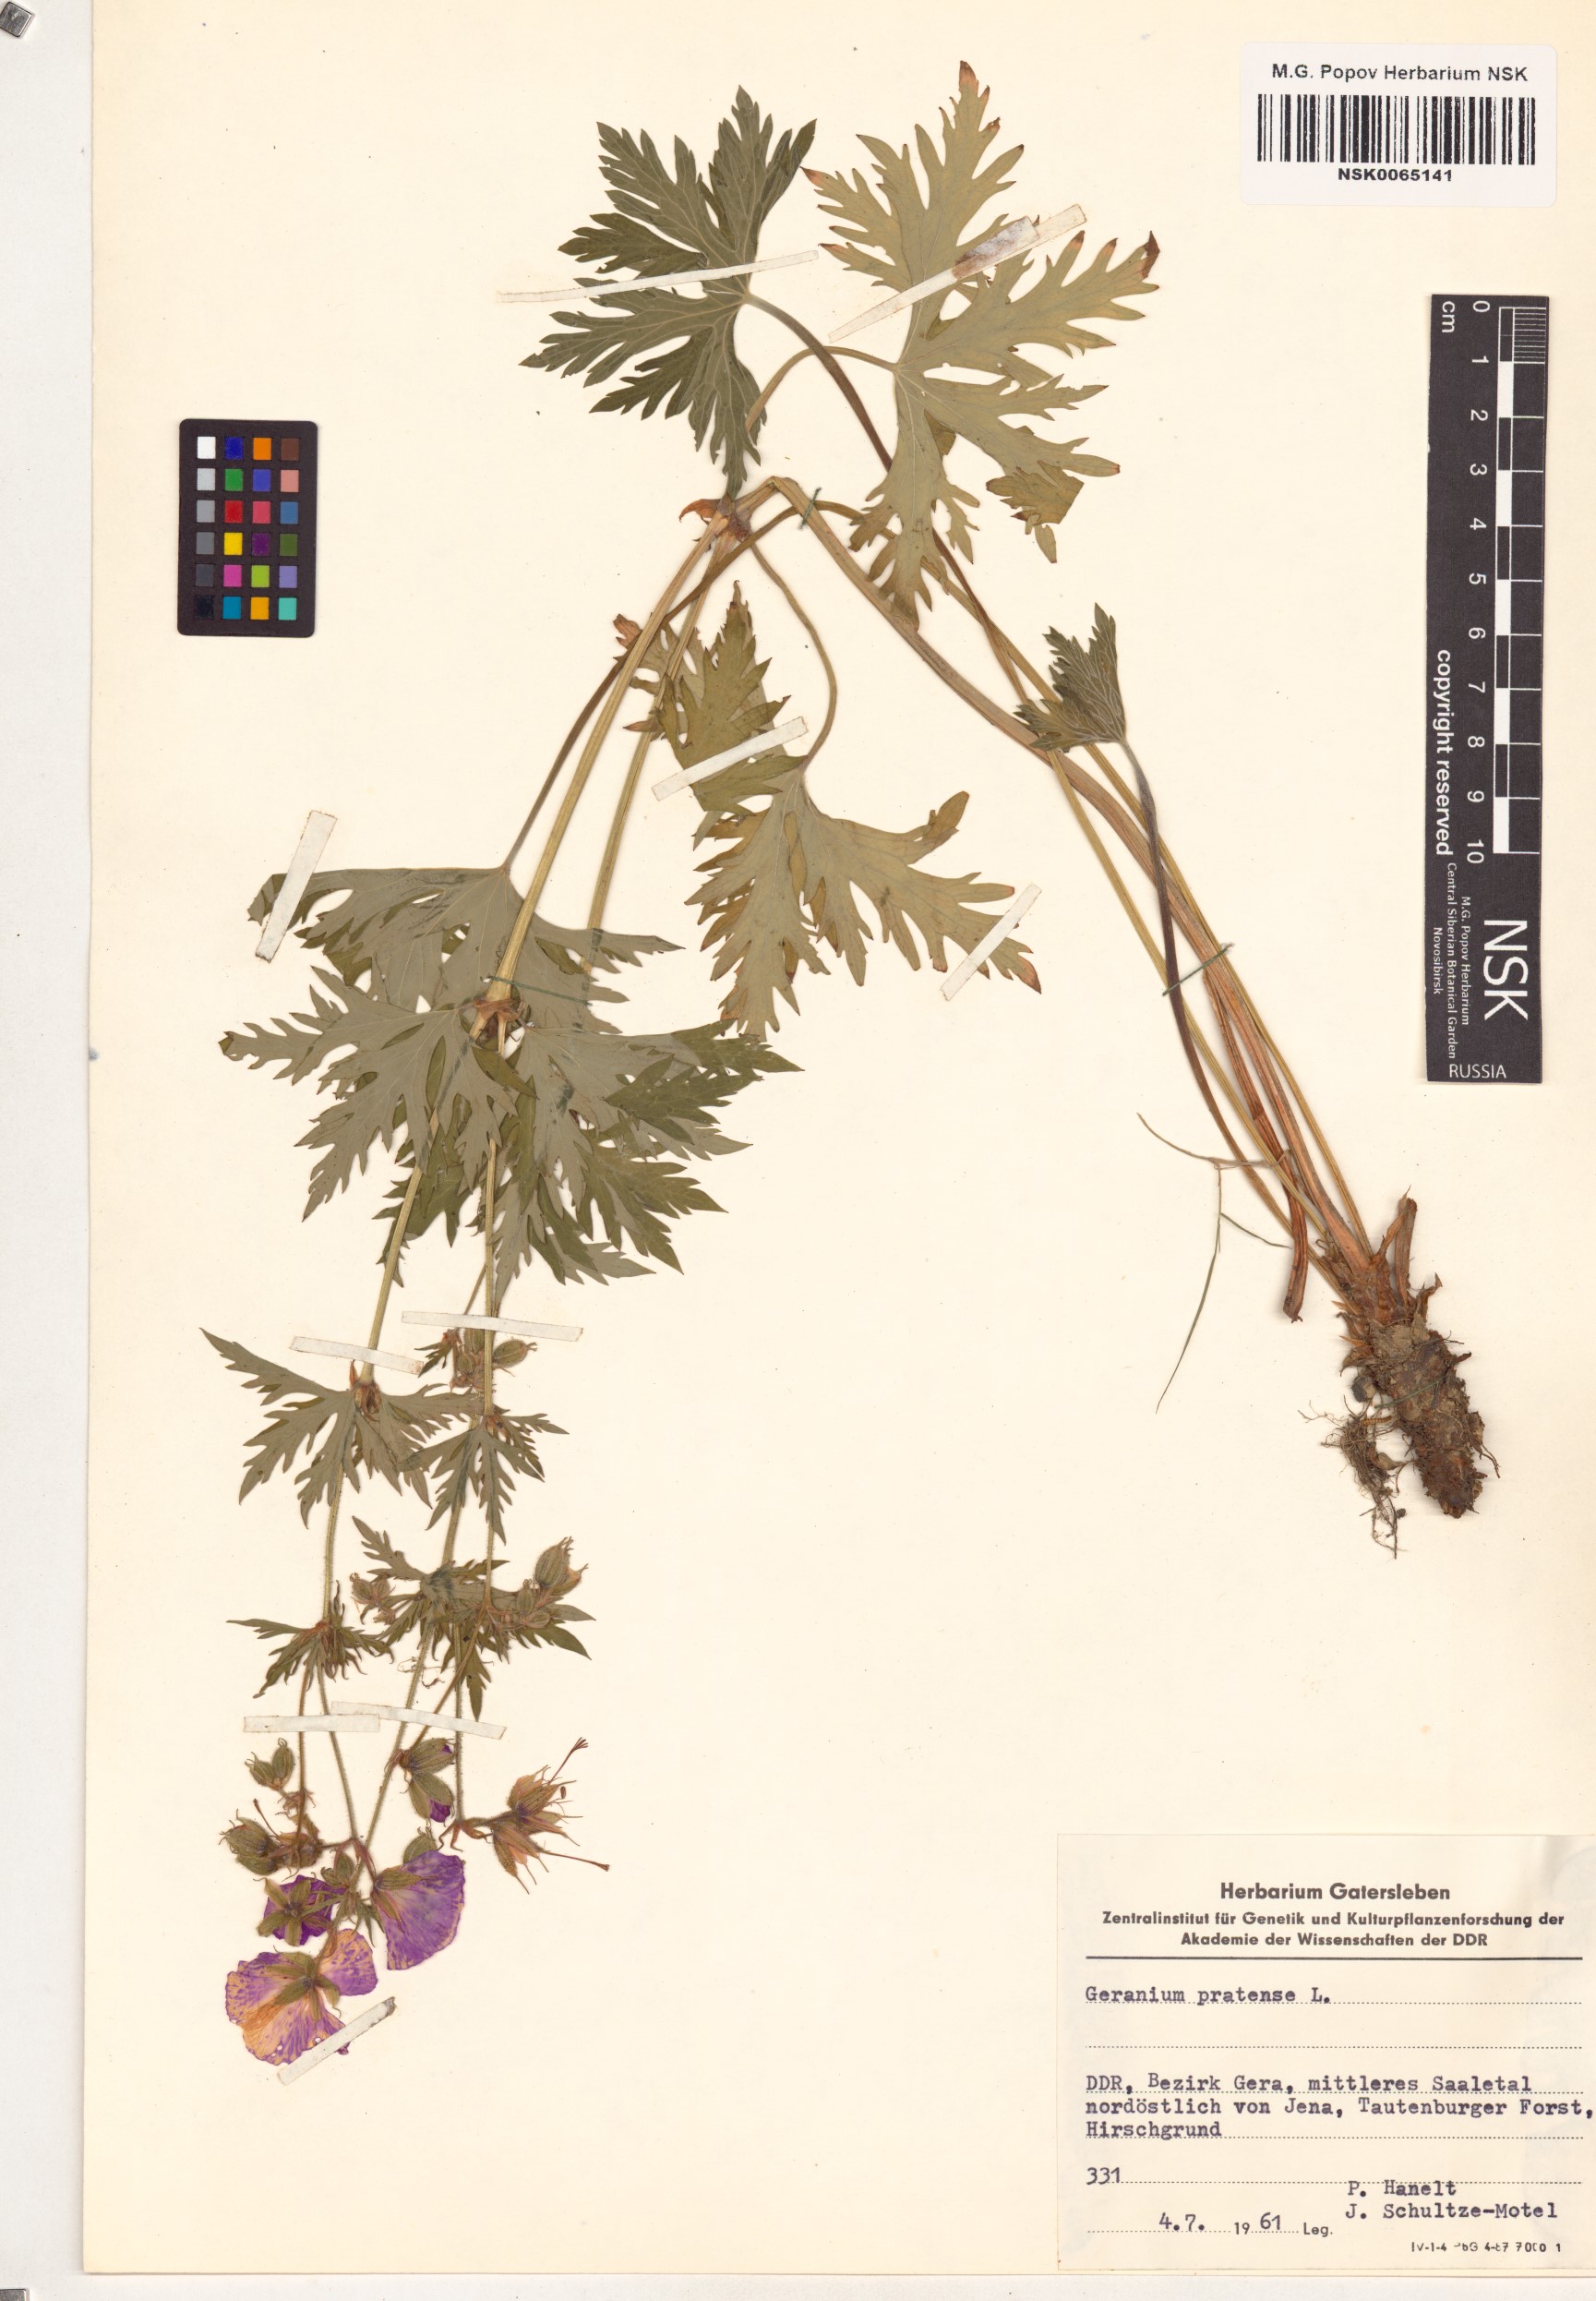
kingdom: Plantae
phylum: Tracheophyta
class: Magnoliopsida
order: Geraniales
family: Geraniaceae
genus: Geranium
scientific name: Geranium pratense
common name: Meadow crane's-bill
